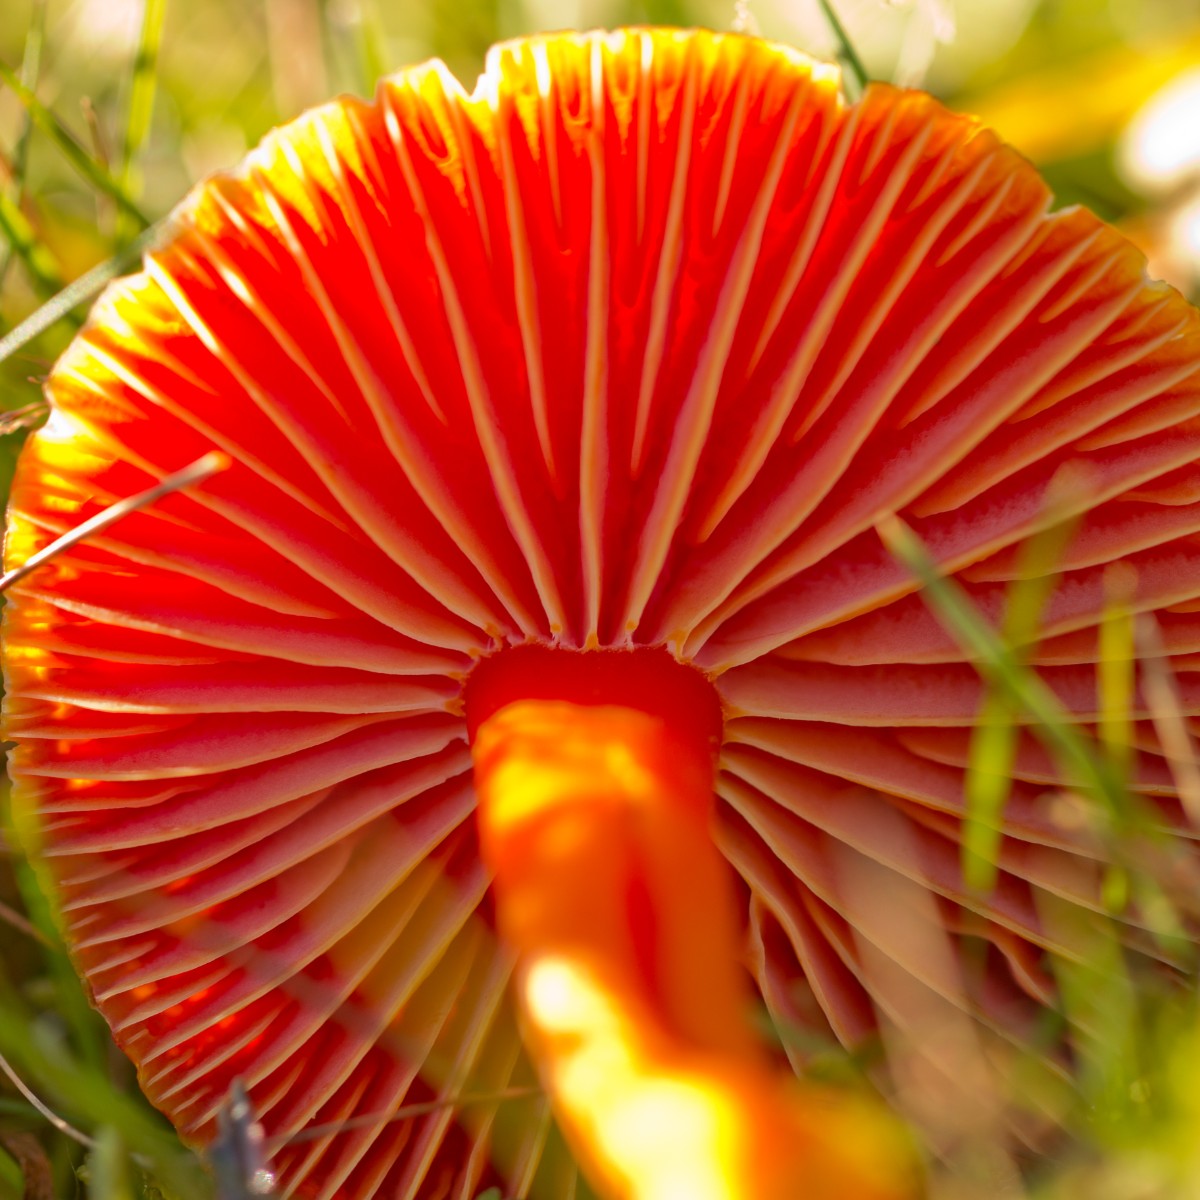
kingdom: Fungi
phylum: Basidiomycota
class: Agaricomycetes
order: Agaricales
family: Hygrophoraceae
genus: Hygrocybe
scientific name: Hygrocybe coccinea
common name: cinnober-vokshat
